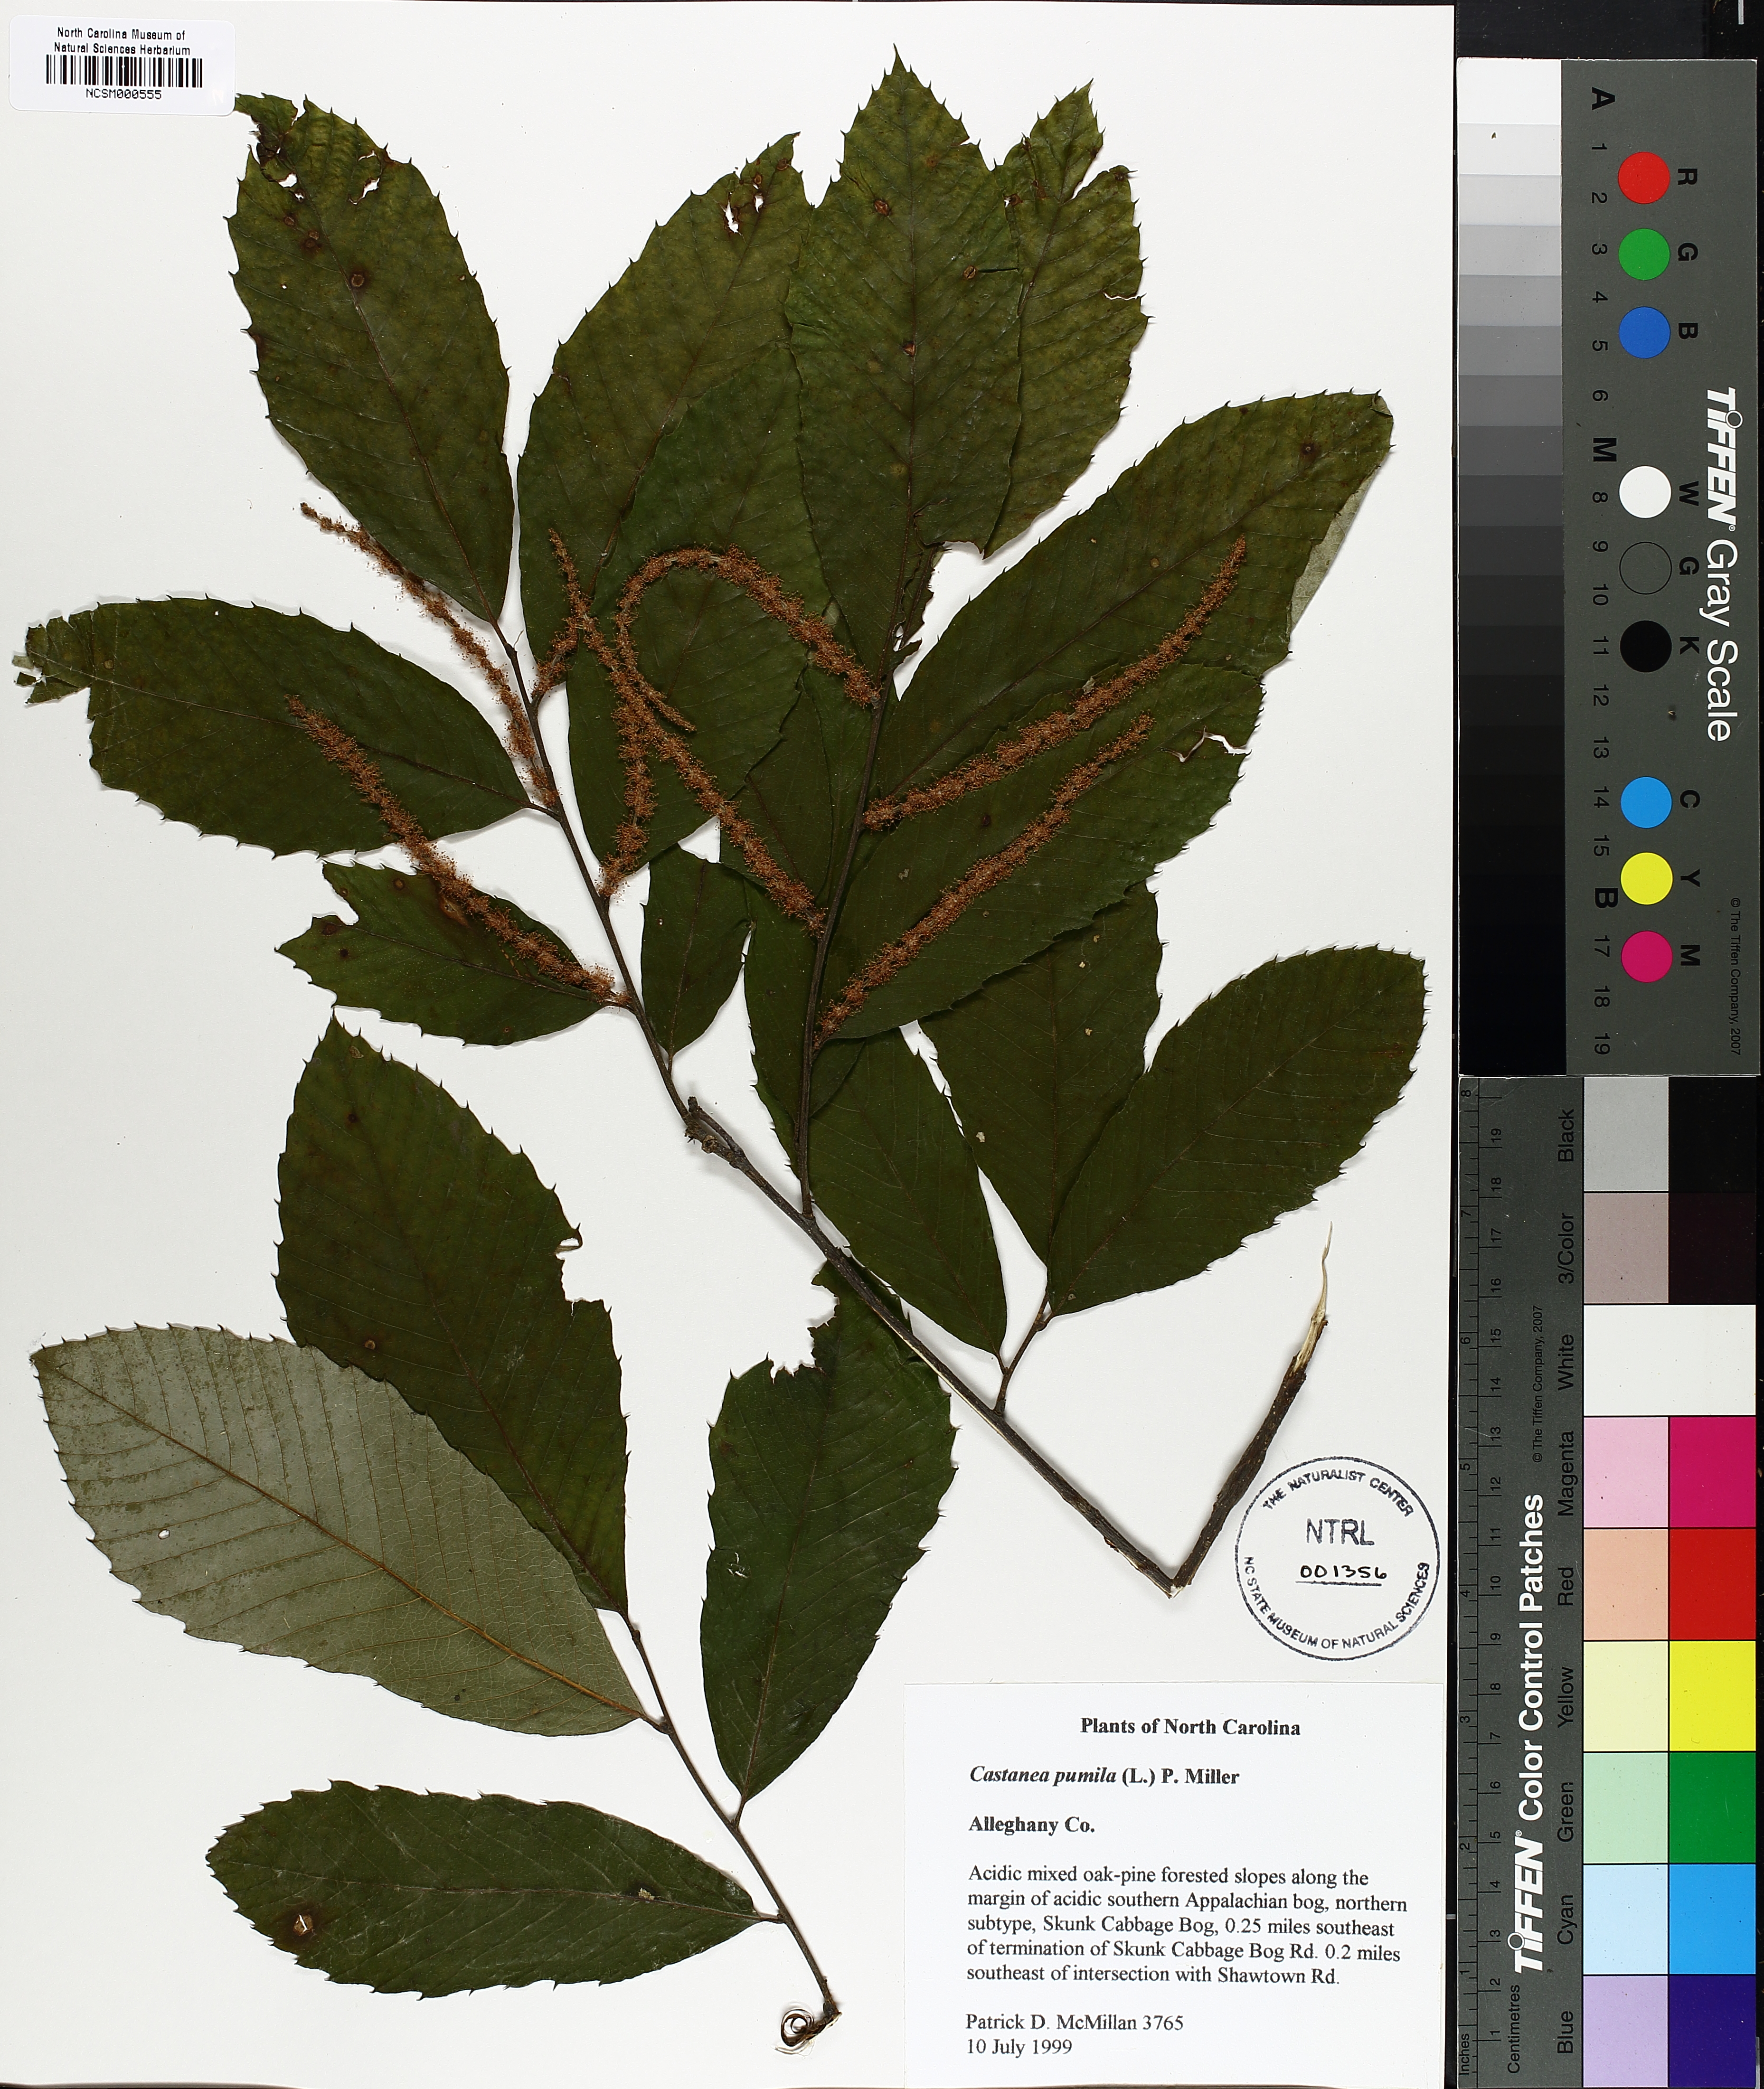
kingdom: Plantae
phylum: Tracheophyta
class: Magnoliopsida
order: Fagales
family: Fagaceae
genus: Castanea
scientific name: Castanea pumila
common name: Chinkapin
